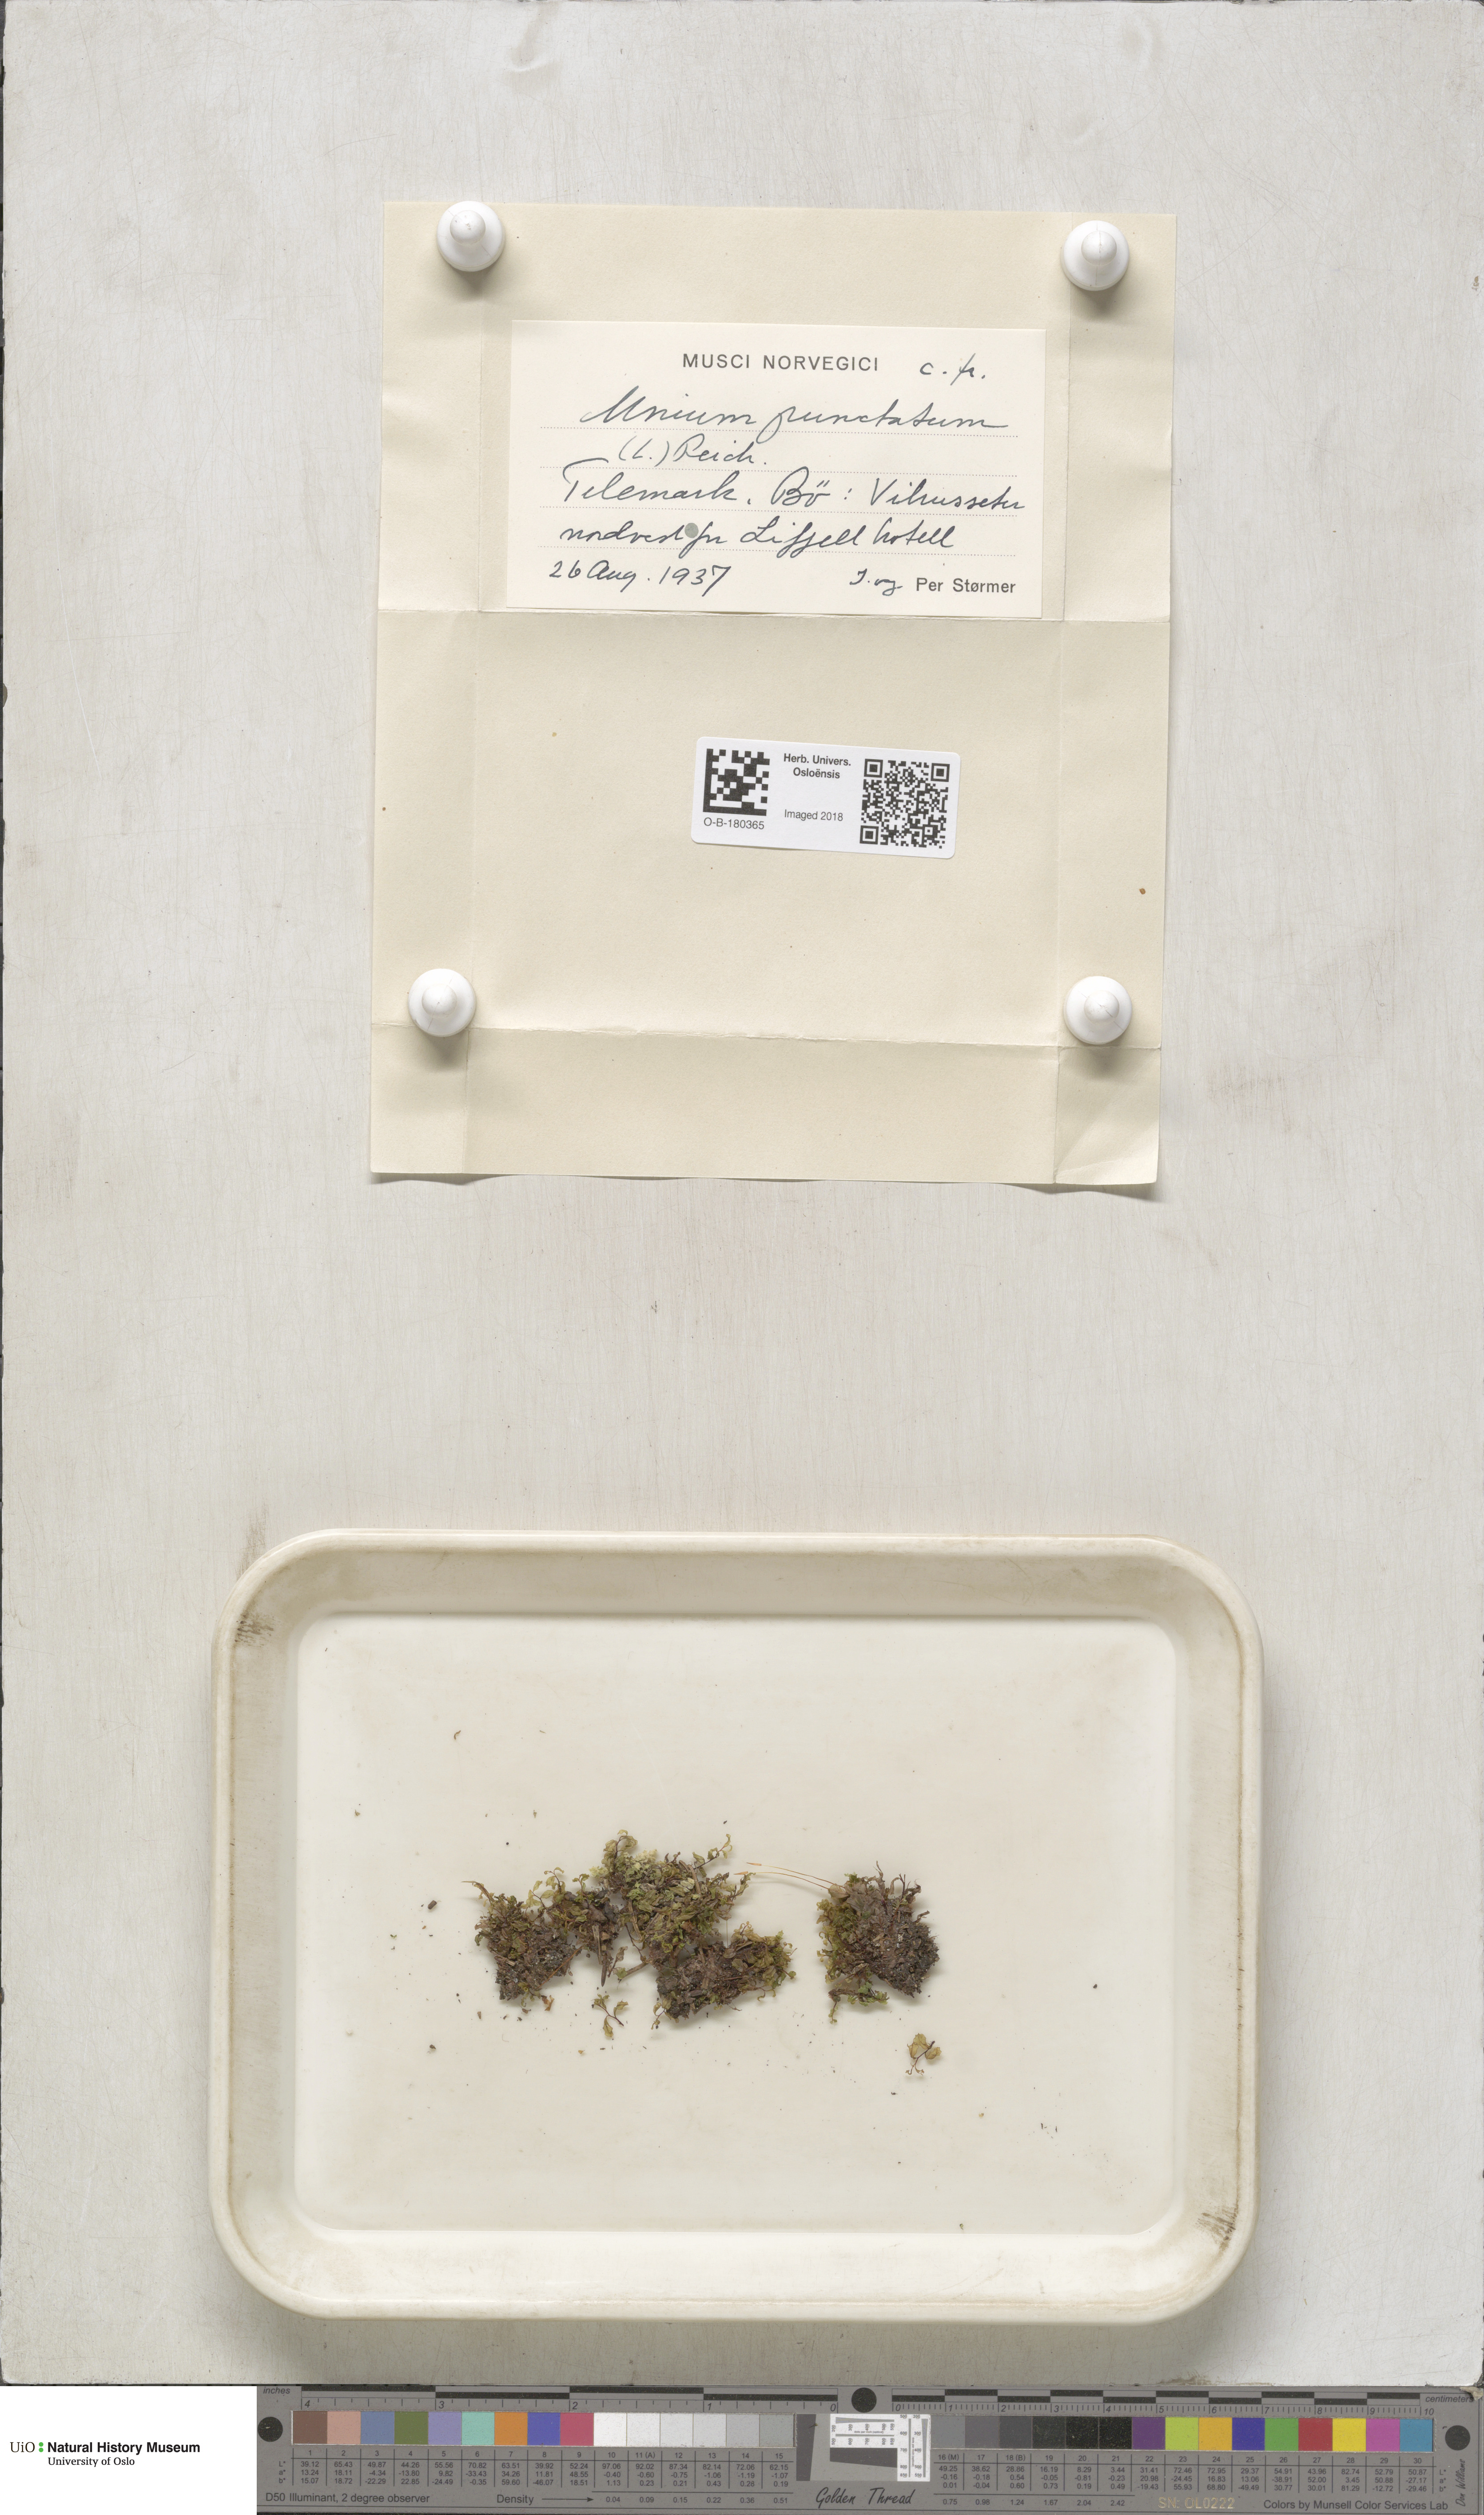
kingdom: Plantae
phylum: Bryophyta
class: Bryopsida
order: Bryales
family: Mniaceae
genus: Rhizomnium
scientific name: Rhizomnium punctatum
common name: Dotted leafy moss
